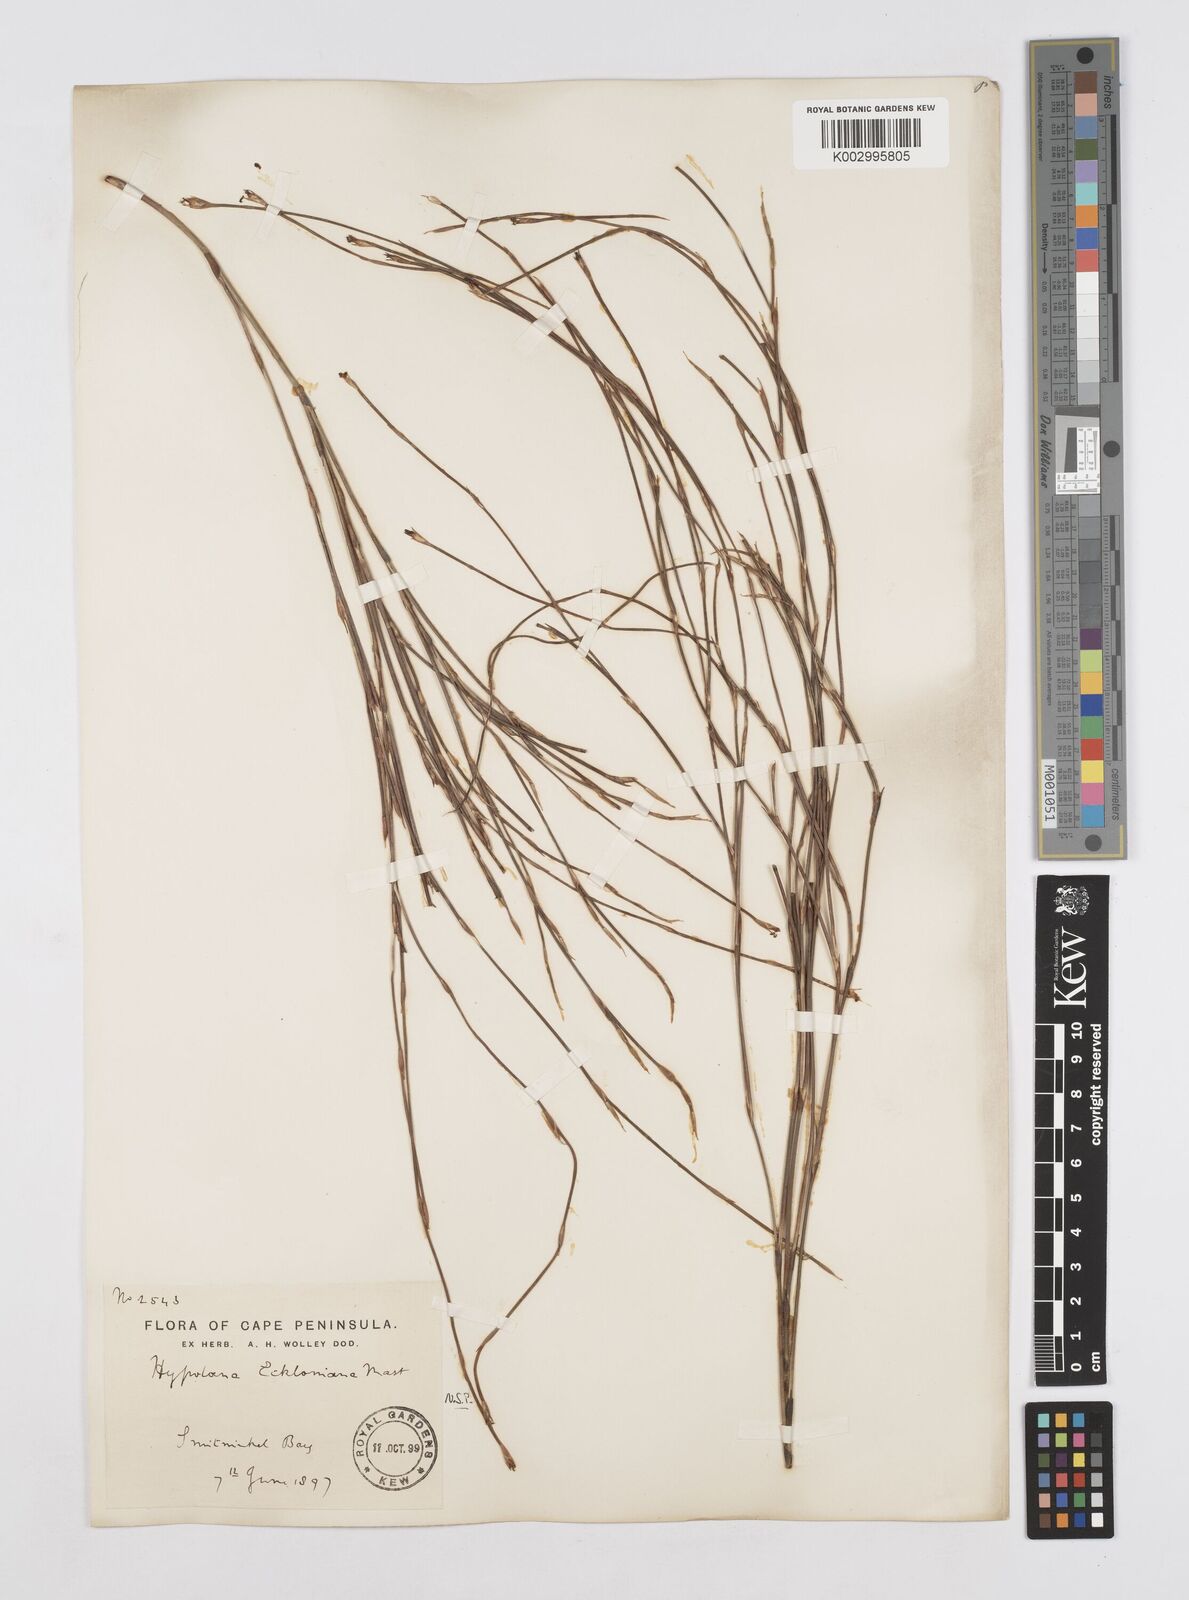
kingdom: Plantae
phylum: Tracheophyta
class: Liliopsida
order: Poales
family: Restionaceae
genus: Mastersiella
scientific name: Mastersiella digitata
